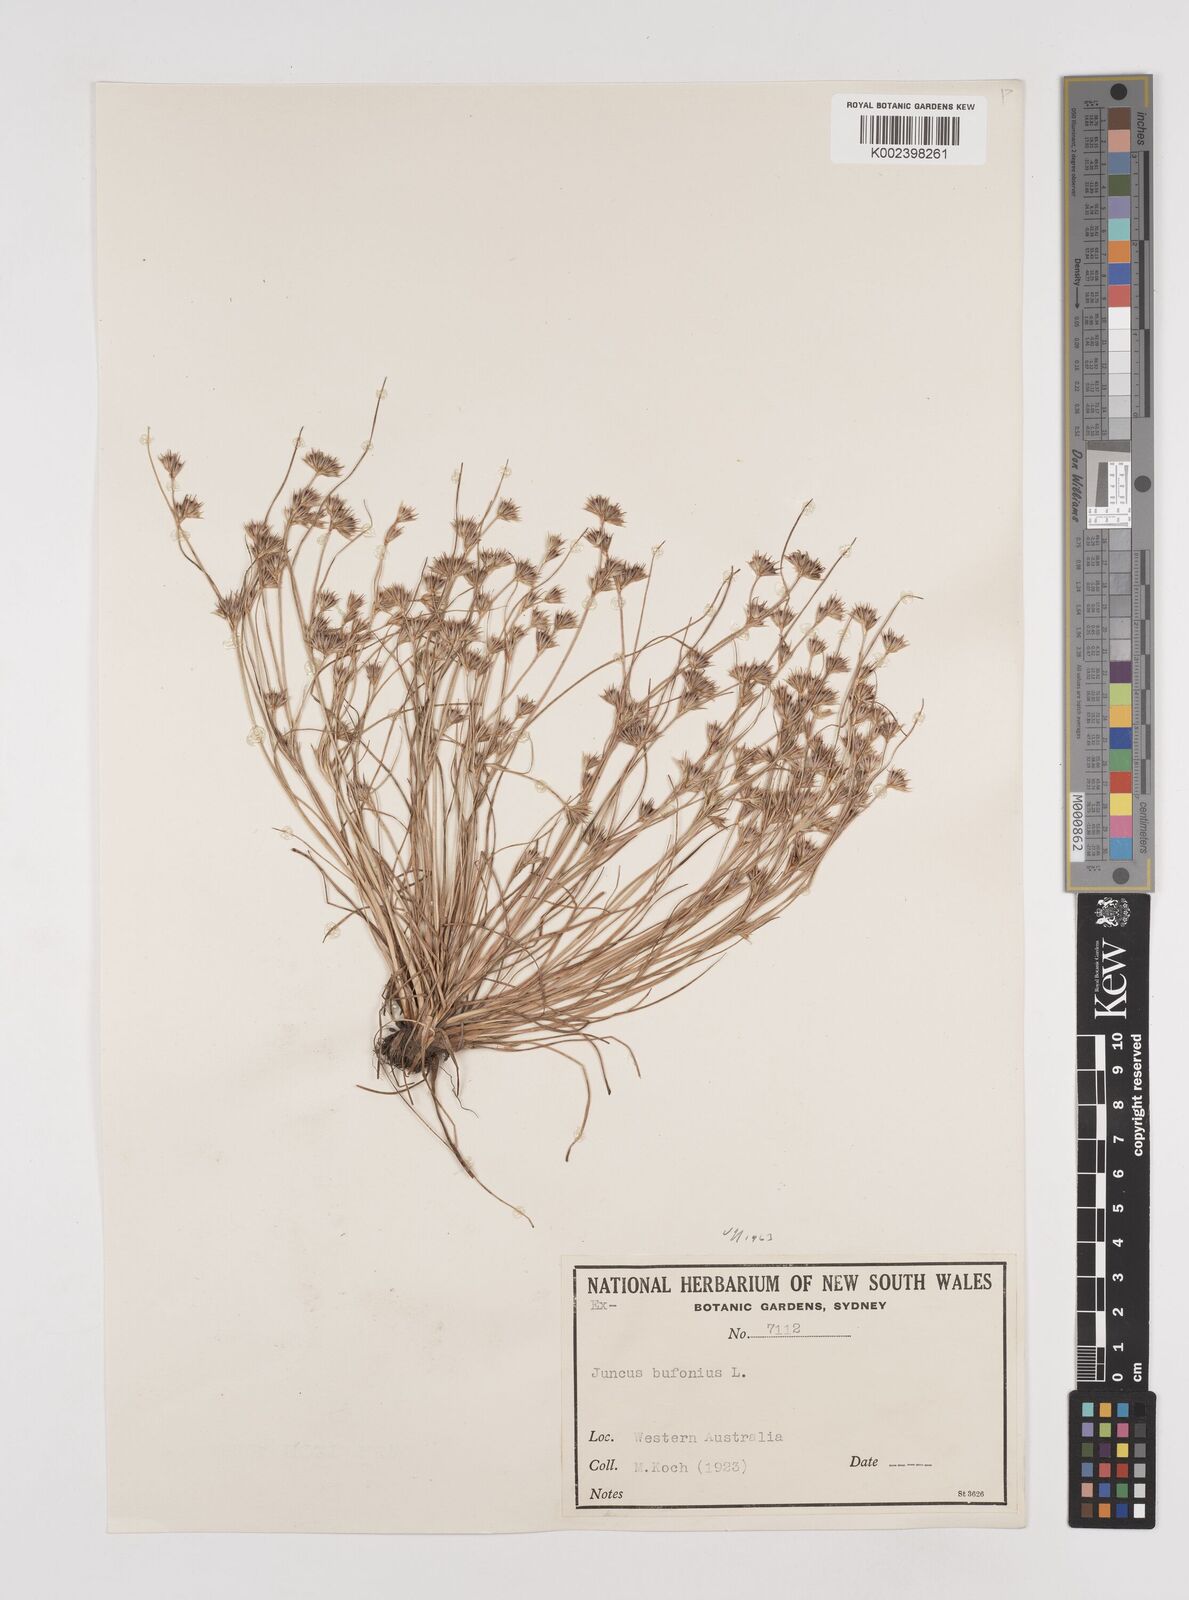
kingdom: Plantae
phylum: Tracheophyta
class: Liliopsida
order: Poales
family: Juncaceae
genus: Juncus
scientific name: Juncus bufonius
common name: Toad rush
